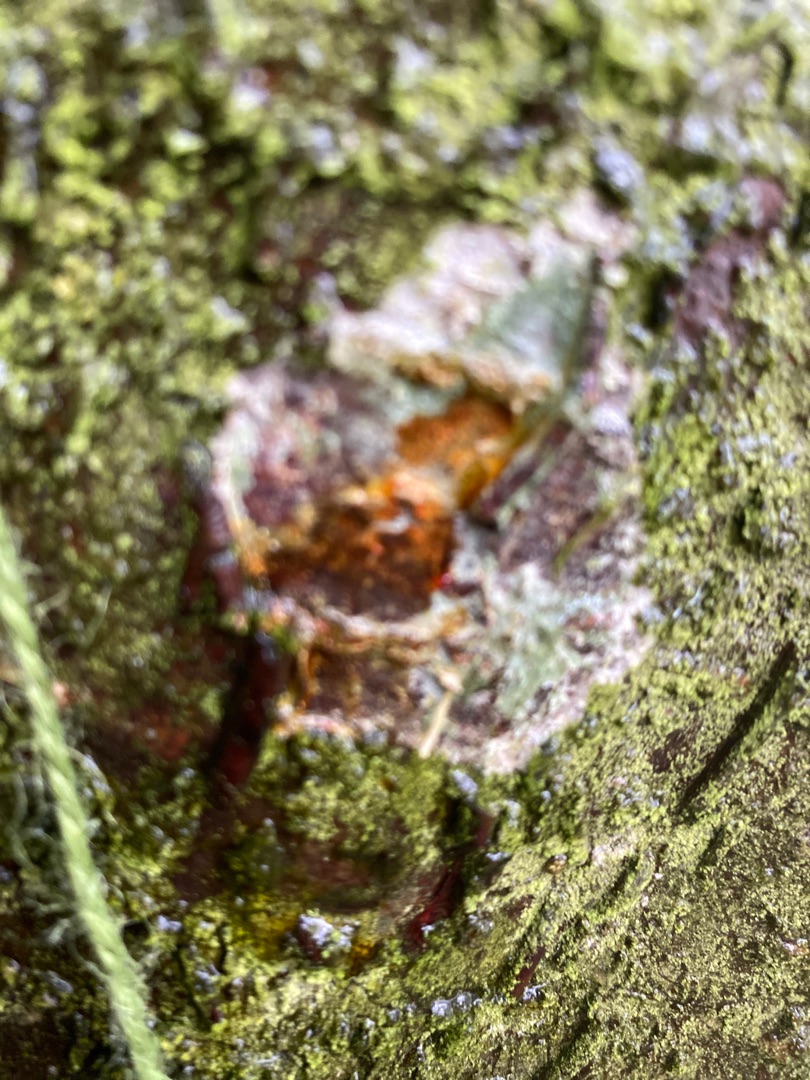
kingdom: Fungi
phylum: Ascomycota
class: Lecanoromycetes
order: Ostropales
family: Phlyctidaceae
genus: Phlyctis
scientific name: Phlyctis argena
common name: Almindelig sølvlav
